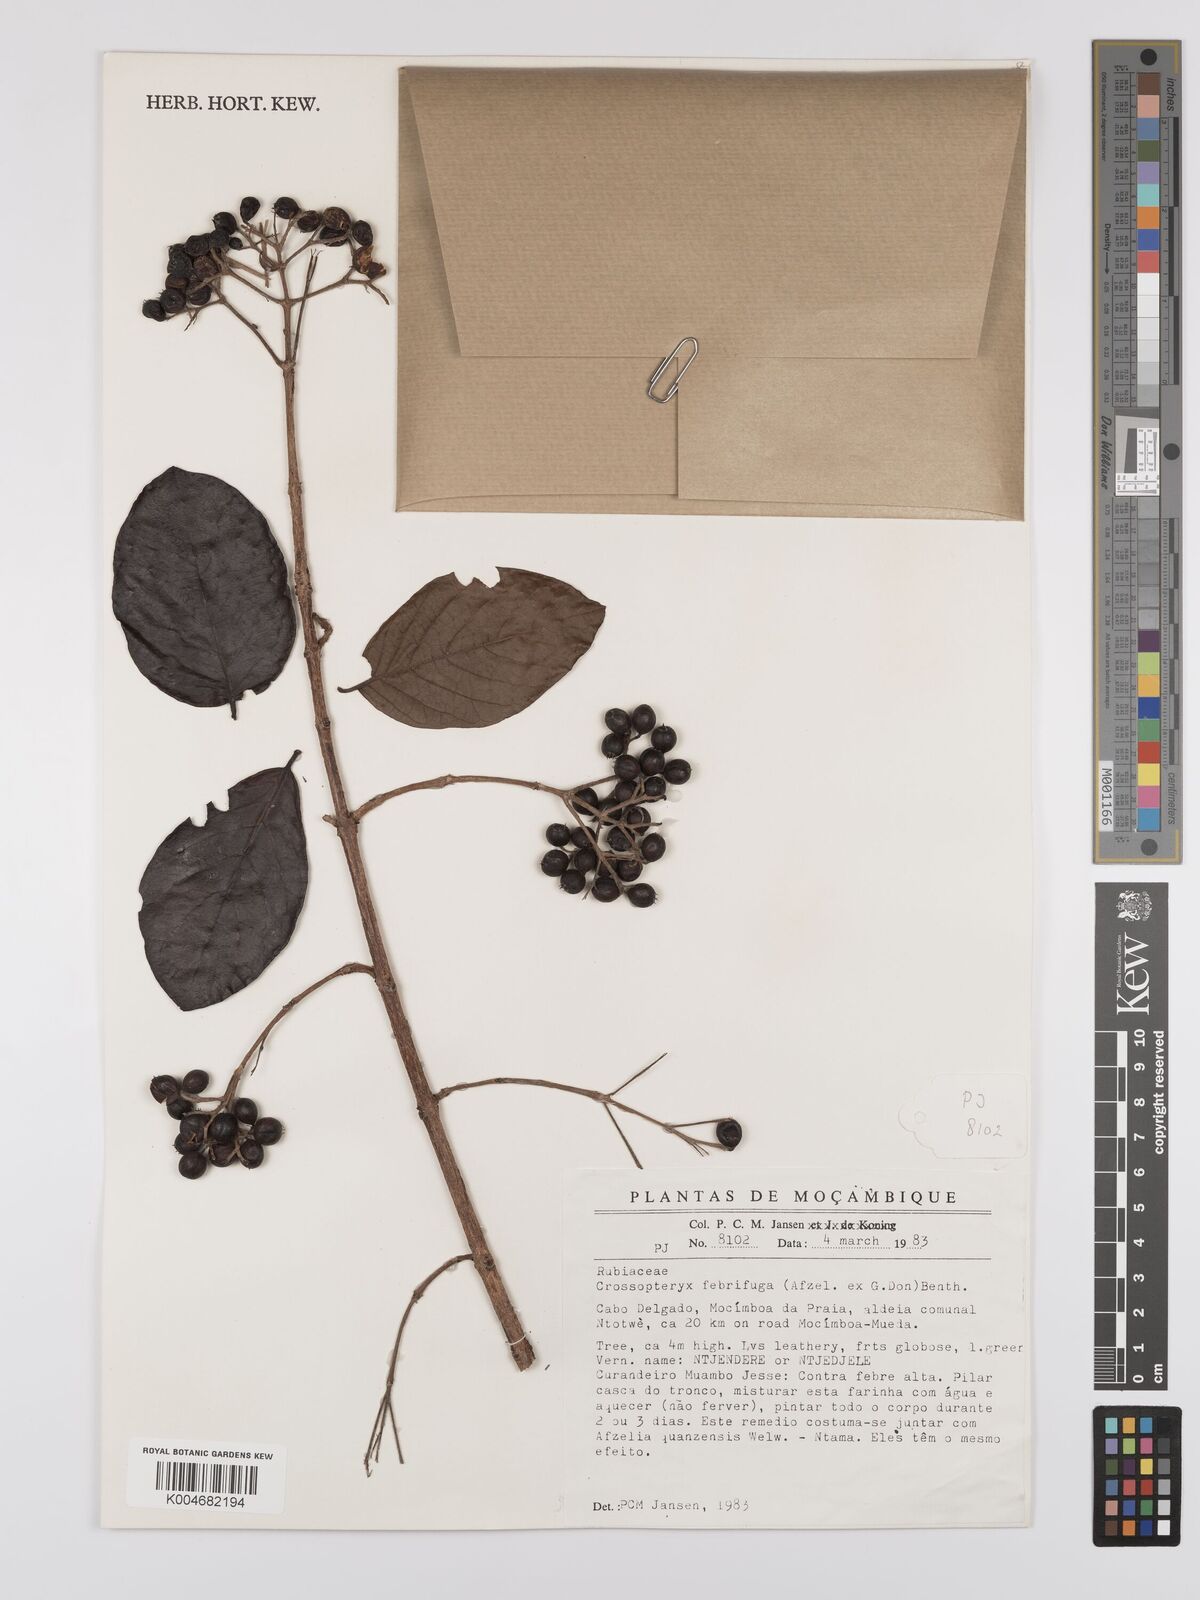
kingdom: Plantae
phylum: Tracheophyta
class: Magnoliopsida
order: Gentianales
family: Rubiaceae
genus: Crossopteryx
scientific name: Crossopteryx febrifuga
